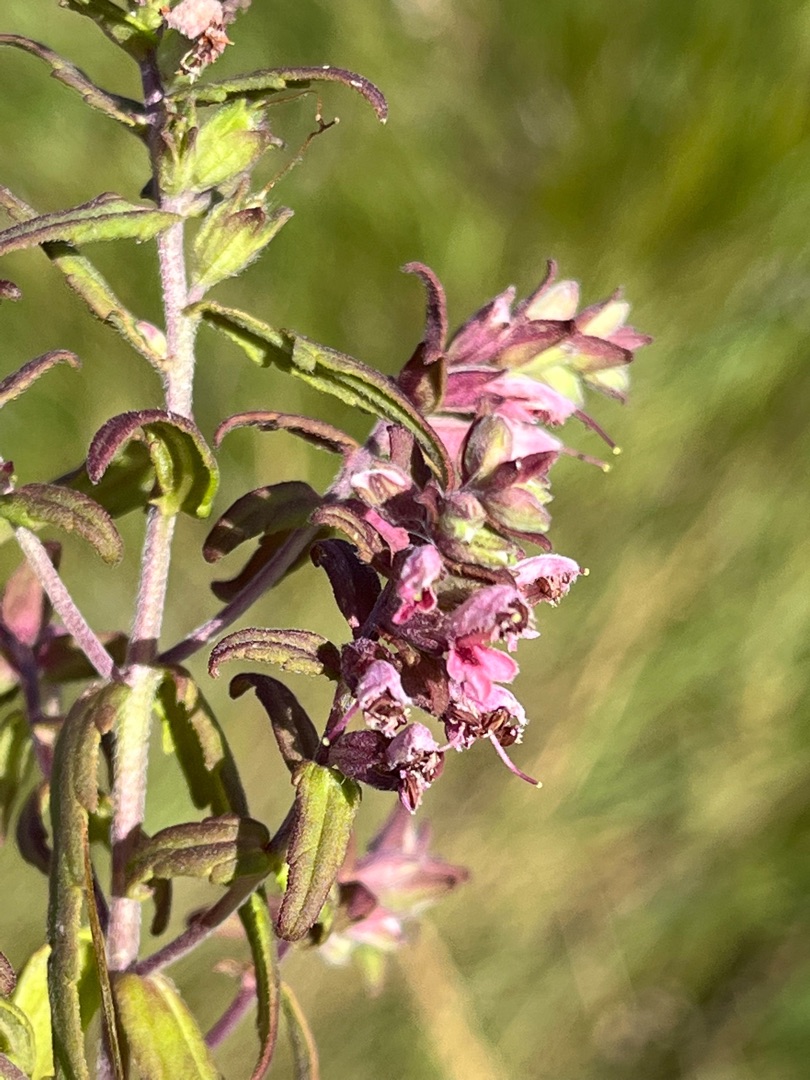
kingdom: Plantae
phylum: Tracheophyta
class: Magnoliopsida
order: Lamiales
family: Orobanchaceae
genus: Odontites
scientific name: Odontites vernus
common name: Mark-rødtop
